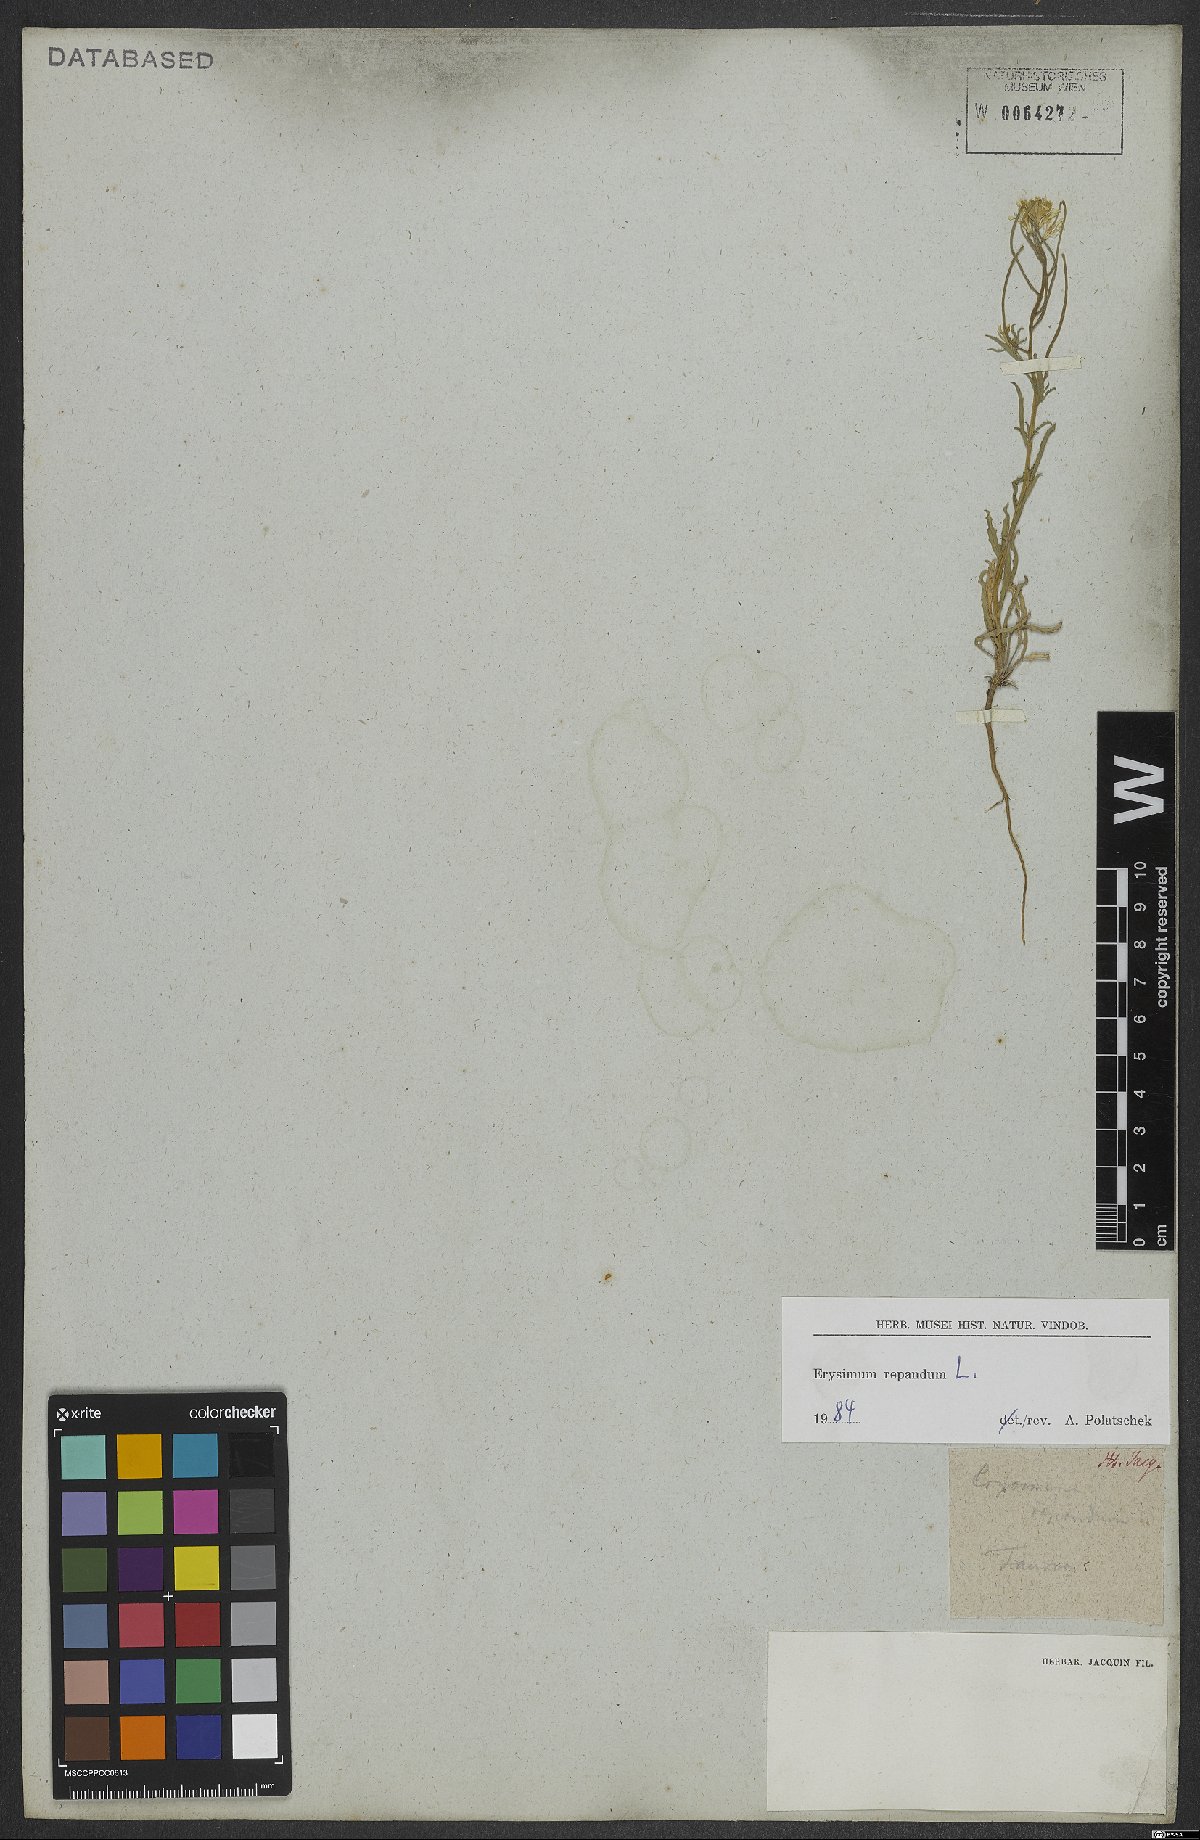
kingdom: Plantae
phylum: Tracheophyta
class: Magnoliopsida
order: Brassicales
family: Brassicaceae
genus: Erysimum
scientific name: Erysimum repandum
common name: Spreading wallflower
